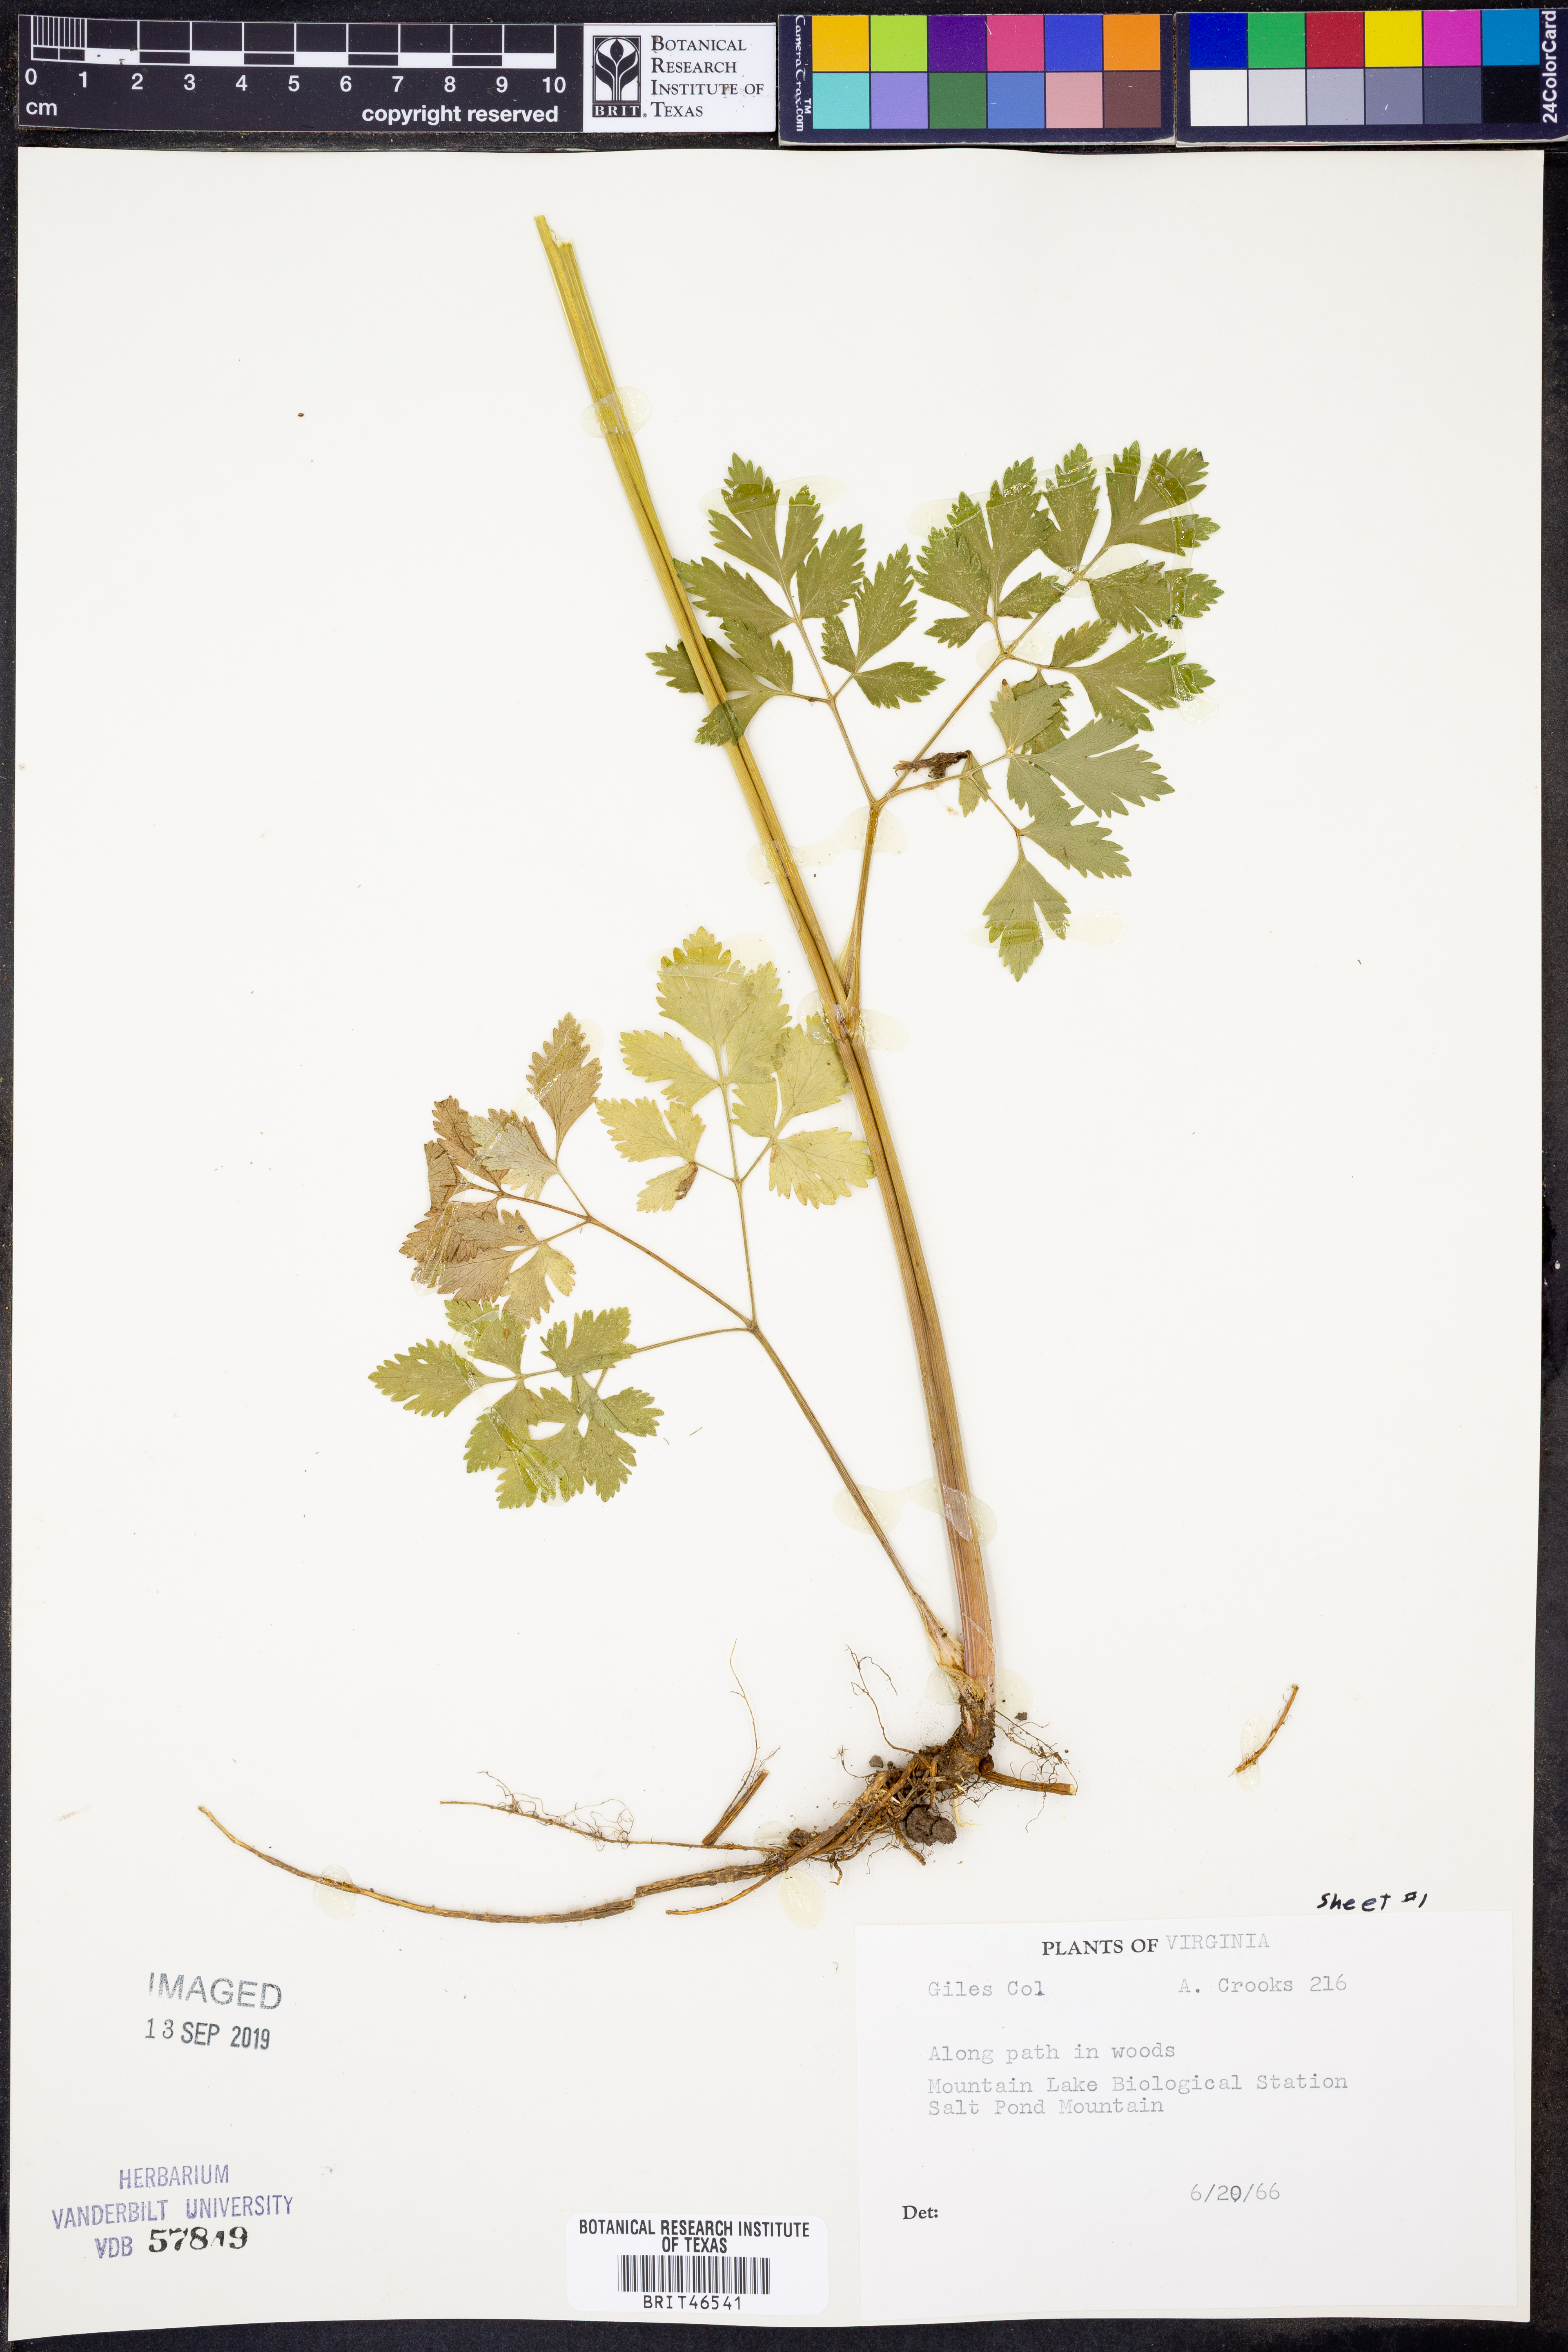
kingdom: Plantae
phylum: Tracheophyta
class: Magnoliopsida
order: Apiales
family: Apiaceae
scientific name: Apiaceae
